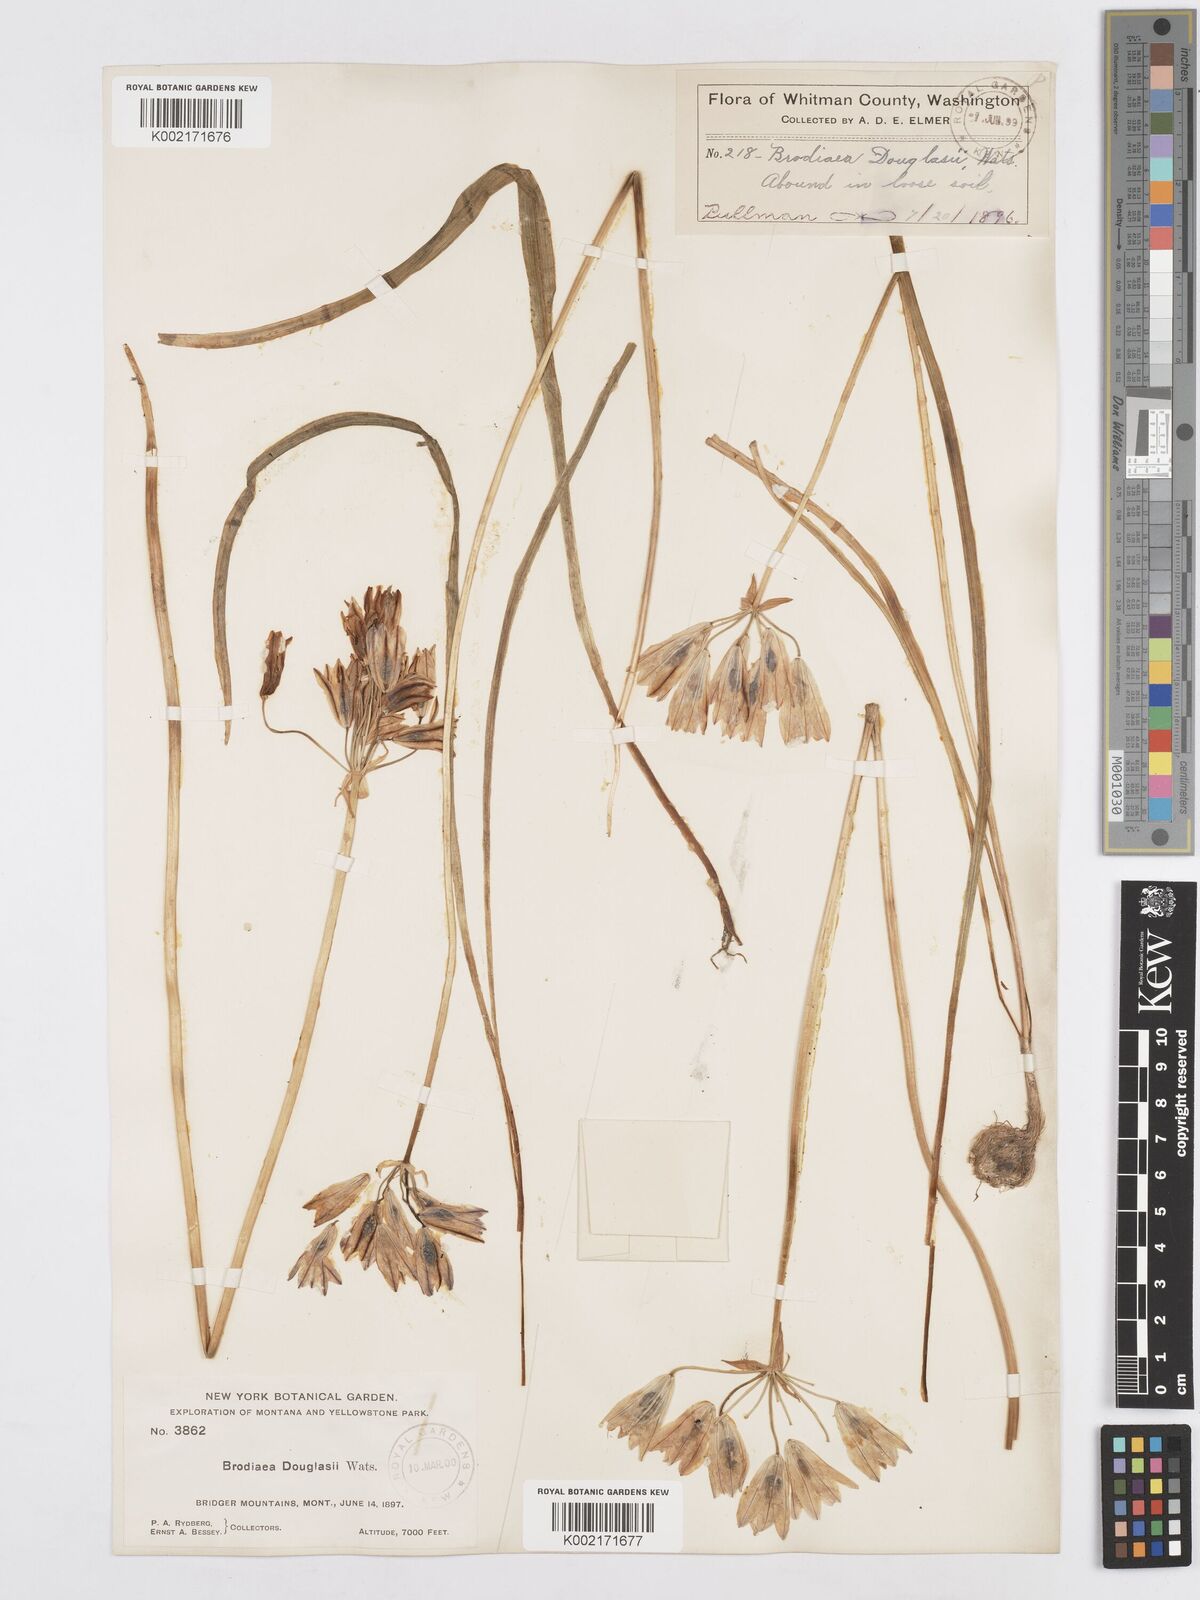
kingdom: Plantae
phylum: Tracheophyta
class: Liliopsida
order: Asparagales
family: Asparagaceae
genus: Triteleia
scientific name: Triteleia grandiflora
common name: Wild hyacinth
